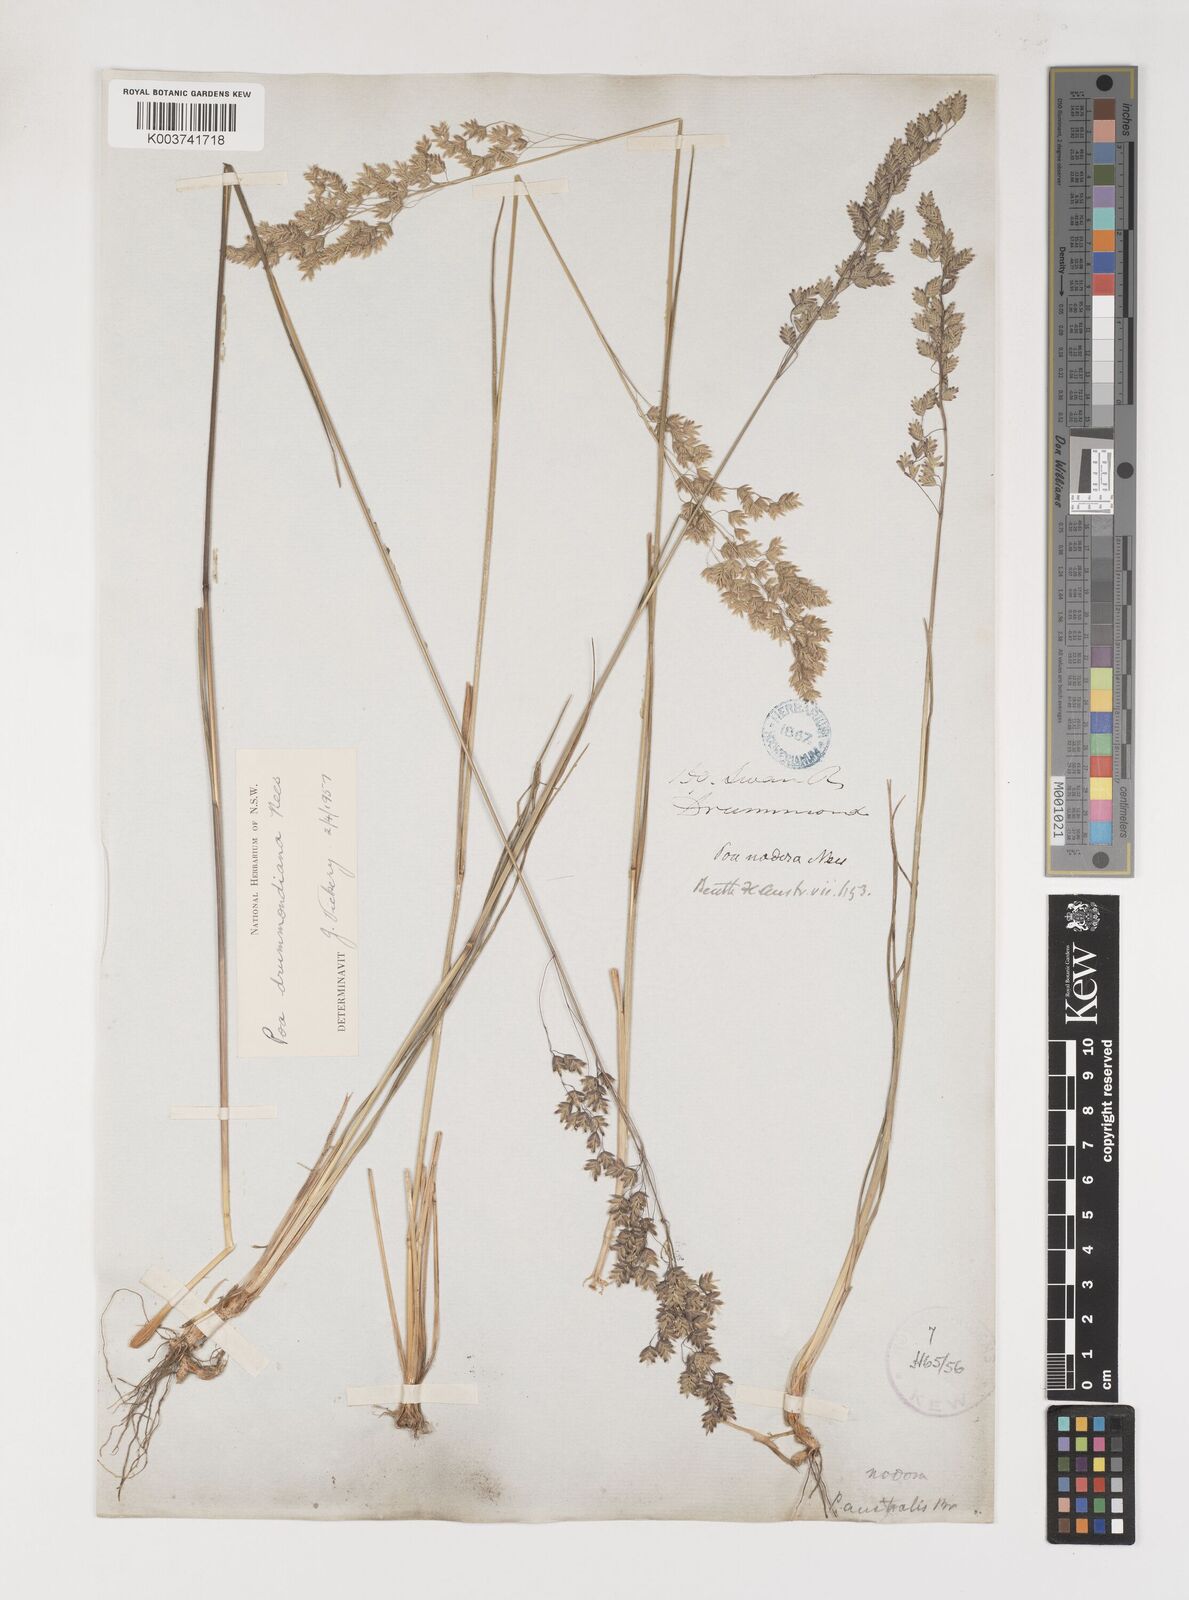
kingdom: Plantae
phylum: Tracheophyta
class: Liliopsida
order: Poales
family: Poaceae
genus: Poa
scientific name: Poa drummondiana
